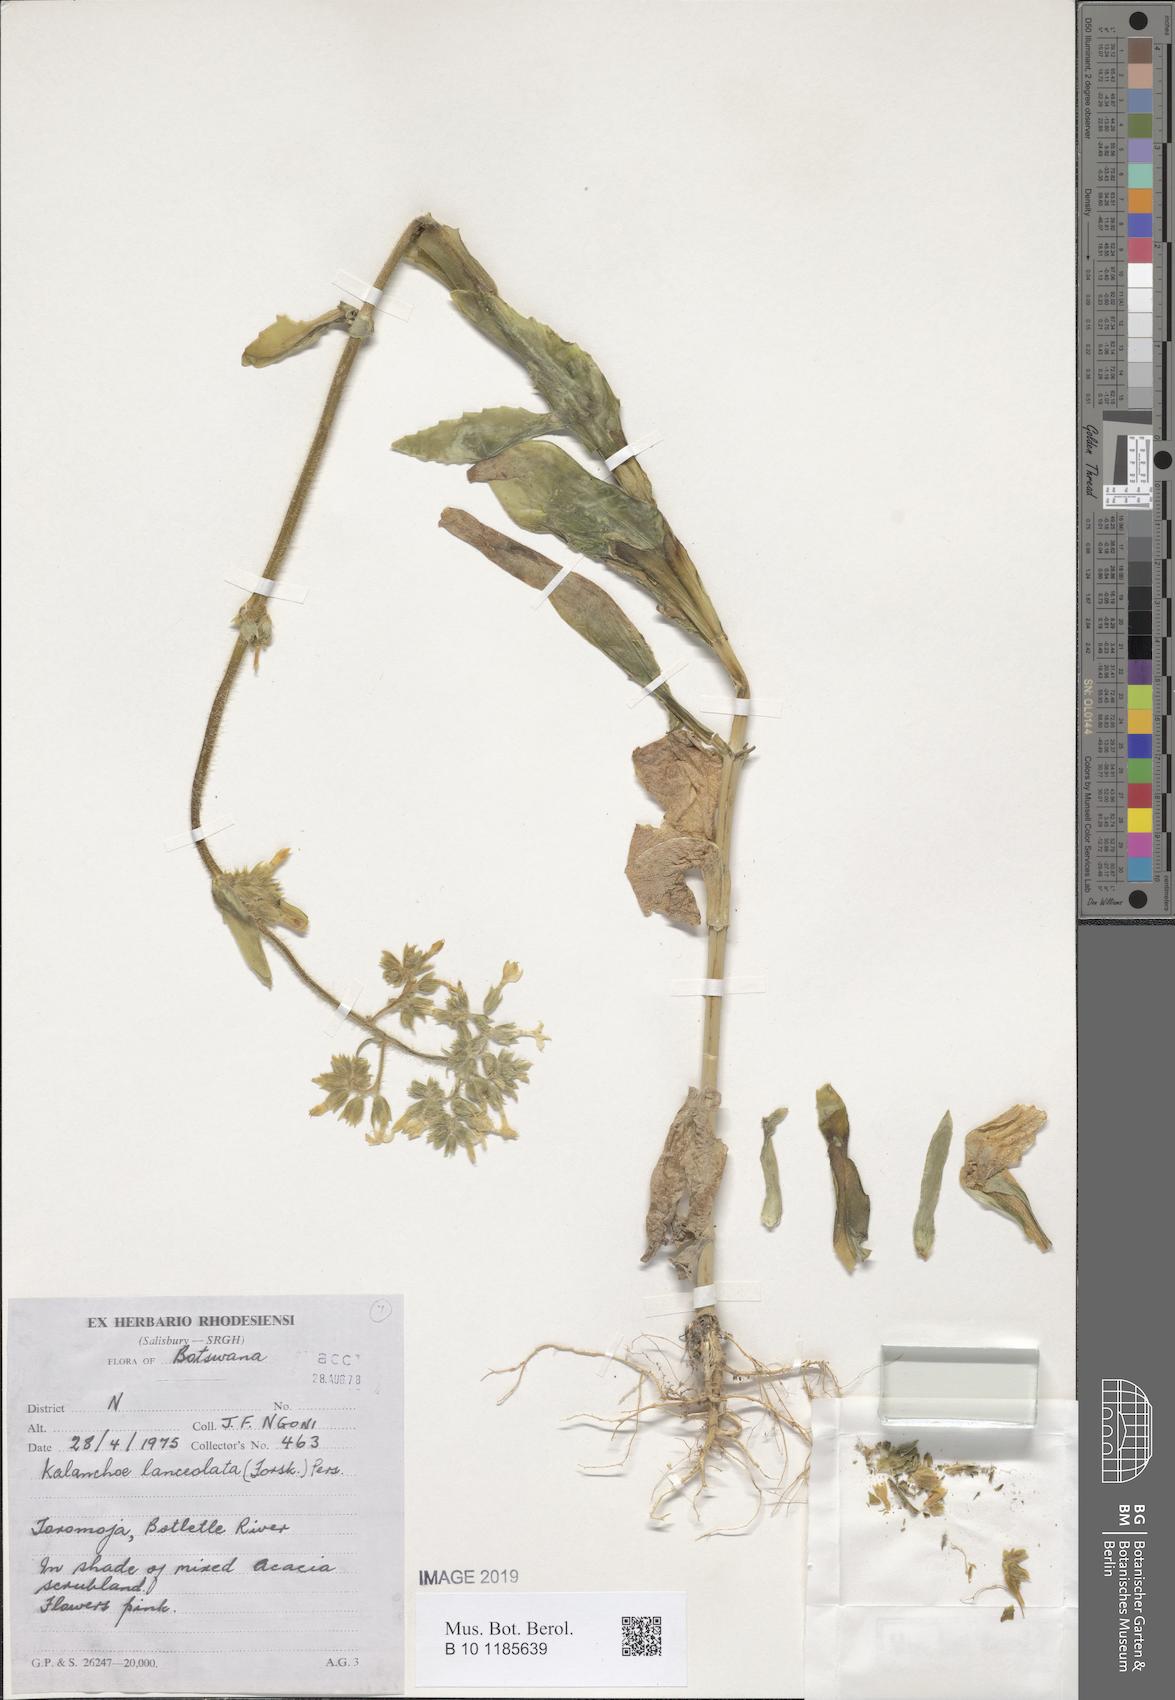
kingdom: Plantae
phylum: Tracheophyta
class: Magnoliopsida
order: Saxifragales
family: Crassulaceae
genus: Kalanchoe
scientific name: Kalanchoe lanceolata
